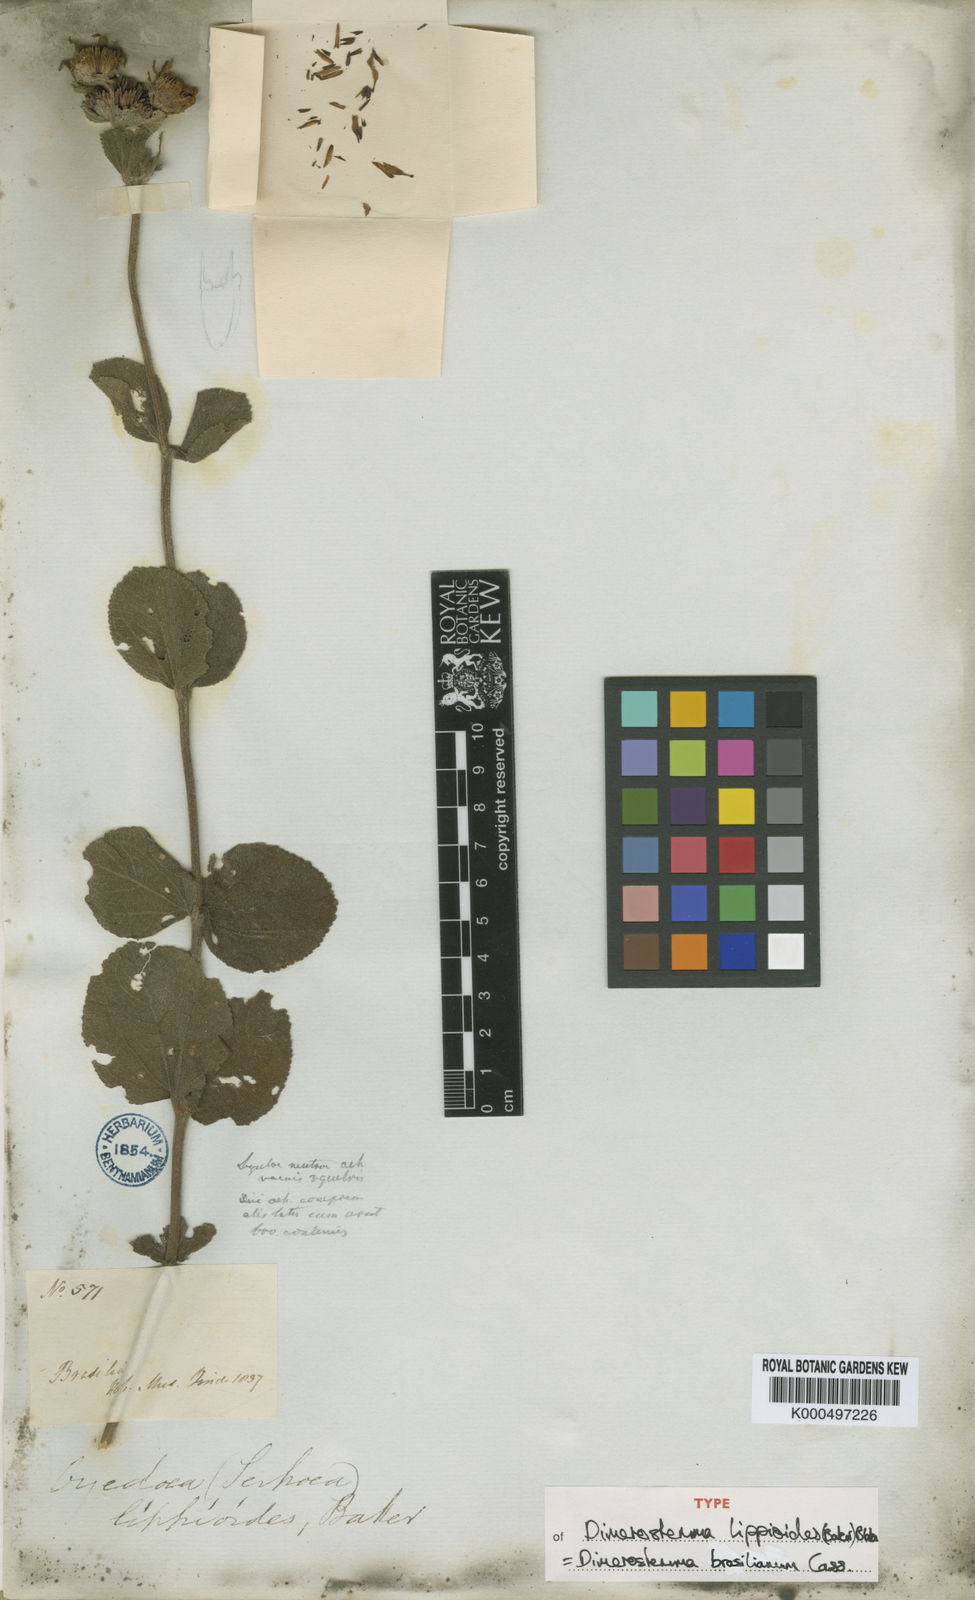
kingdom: Plantae
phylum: Tracheophyta
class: Magnoliopsida
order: Asterales
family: Asteraceae
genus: Dimerostemma
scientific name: Dimerostemma brasilianum
